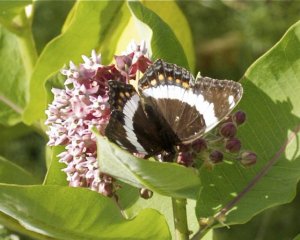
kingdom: Animalia
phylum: Arthropoda
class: Insecta
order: Lepidoptera
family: Nymphalidae
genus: Limenitis
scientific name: Limenitis arthemis
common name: Red-spotted Admiral
